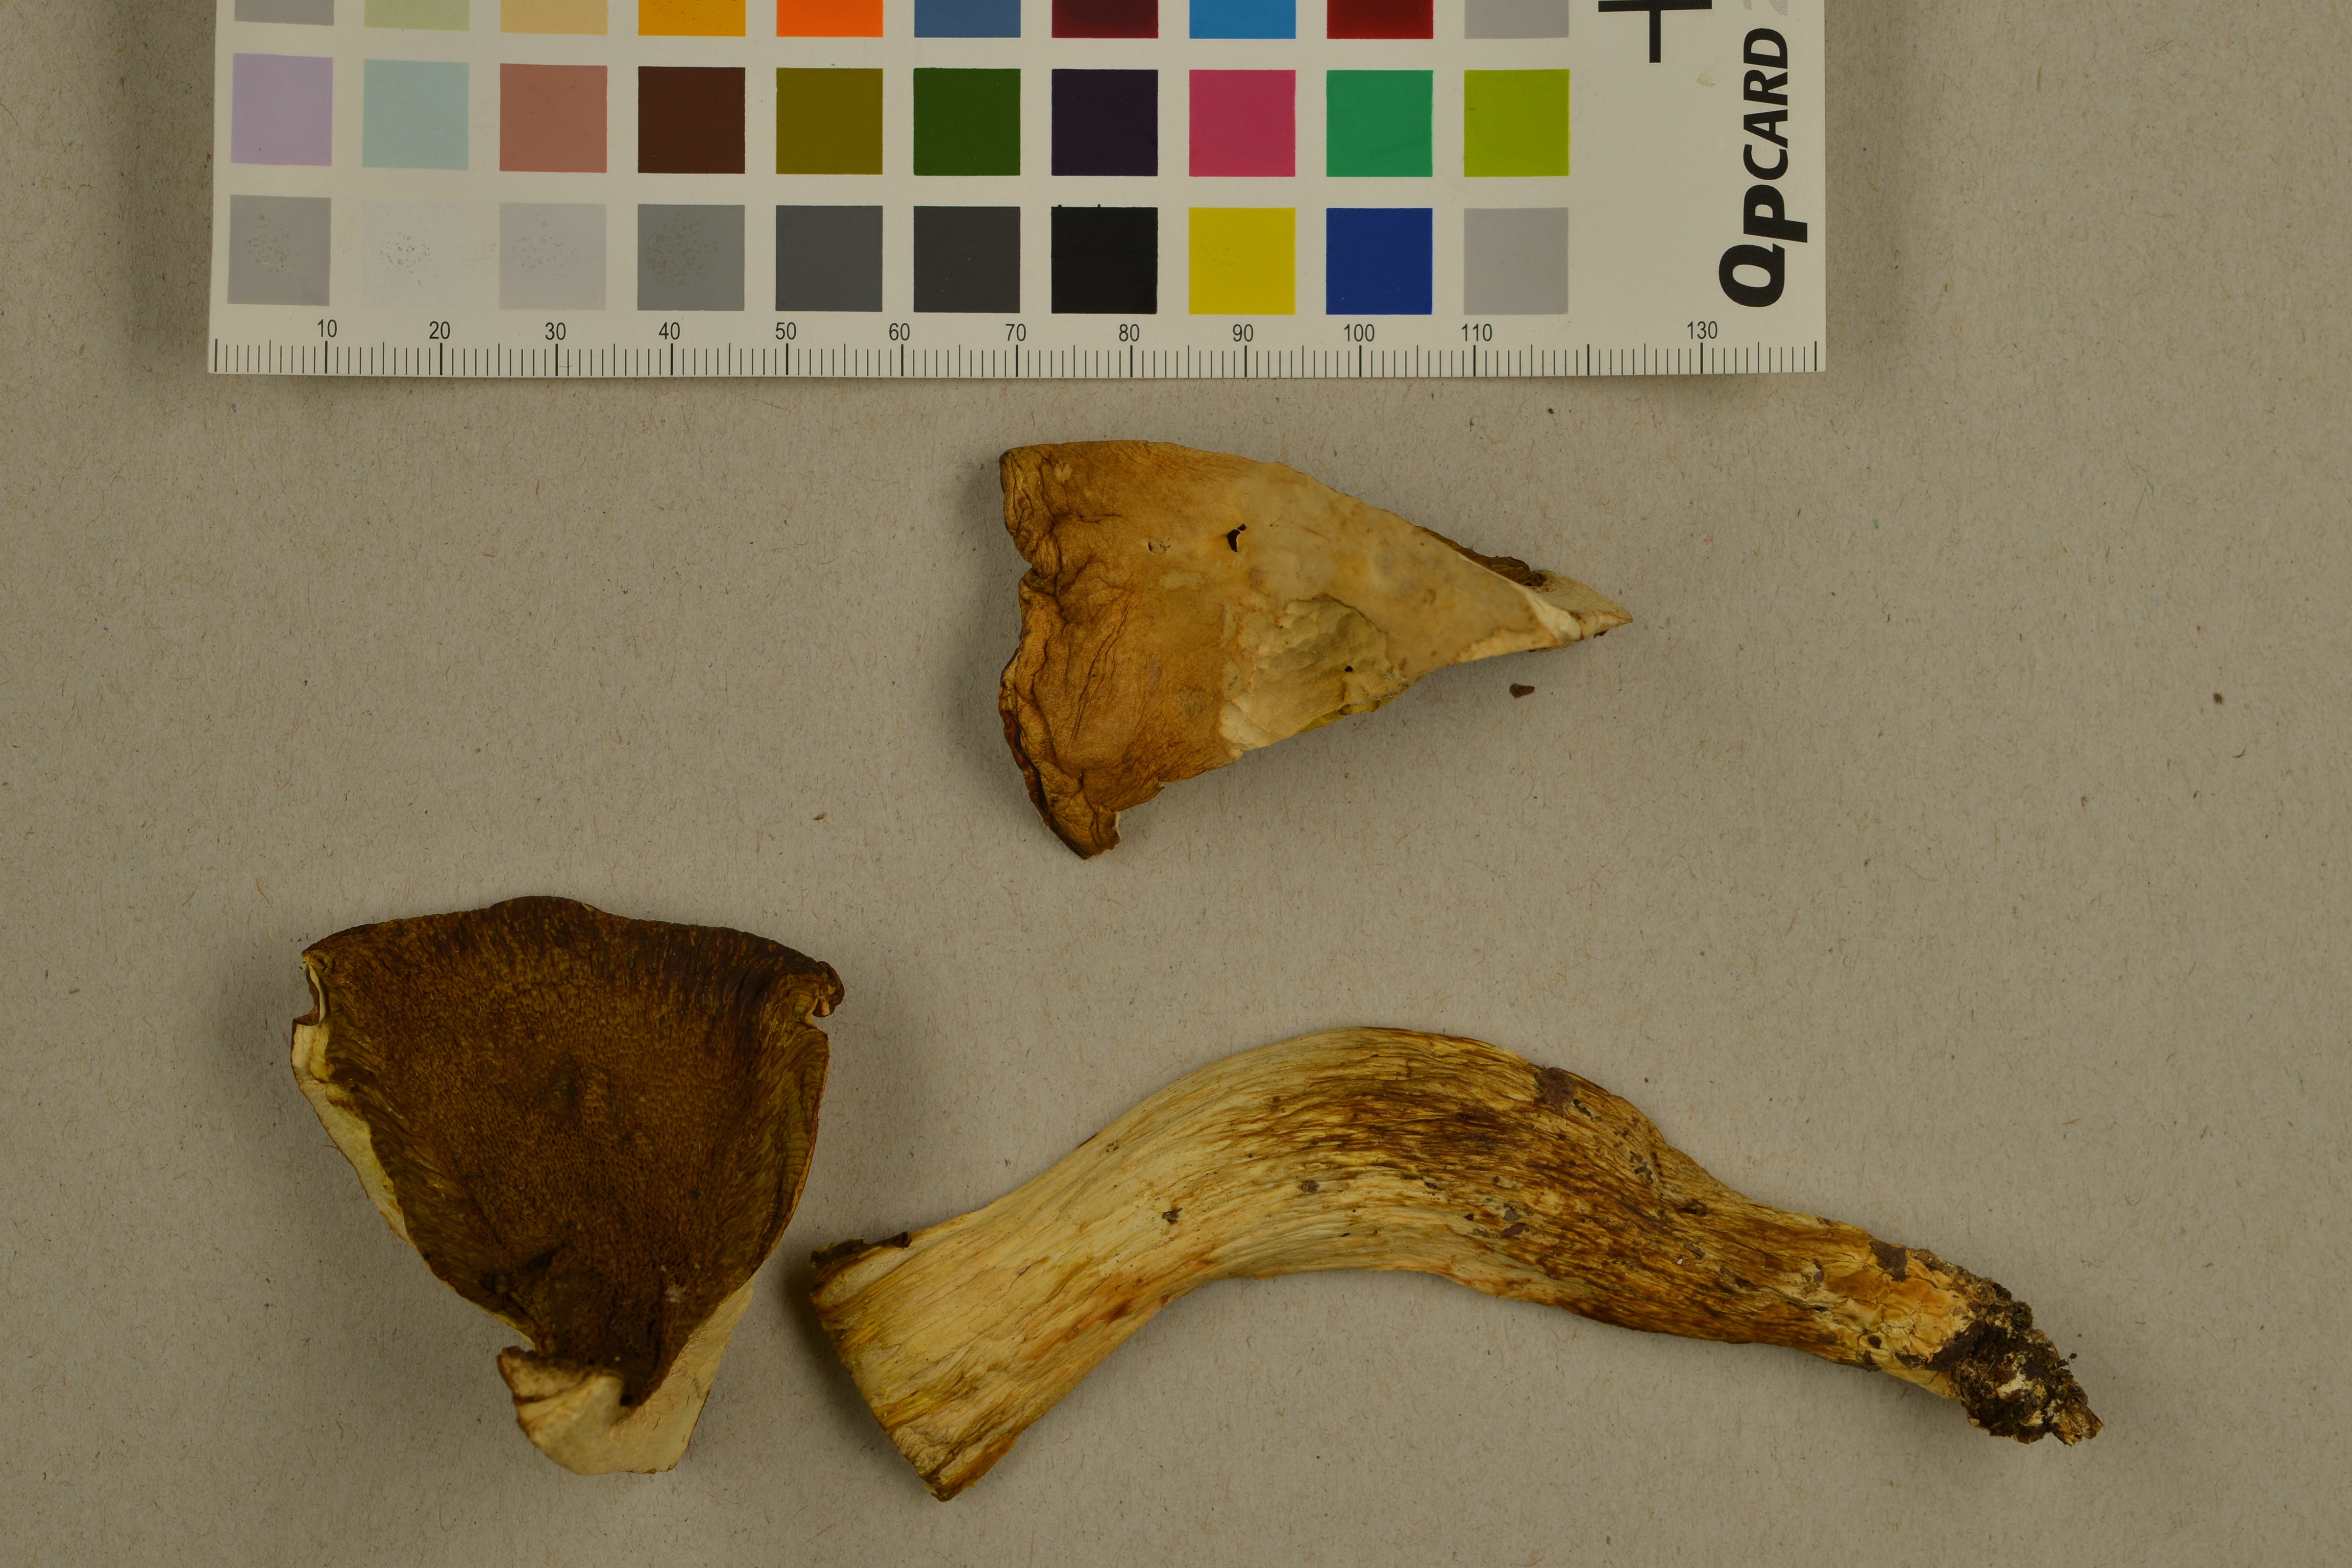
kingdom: Fungi
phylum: Basidiomycota
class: Agaricomycetes
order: Boletales
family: Boletaceae
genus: Hemileccinum
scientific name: Hemileccinum depilatum
